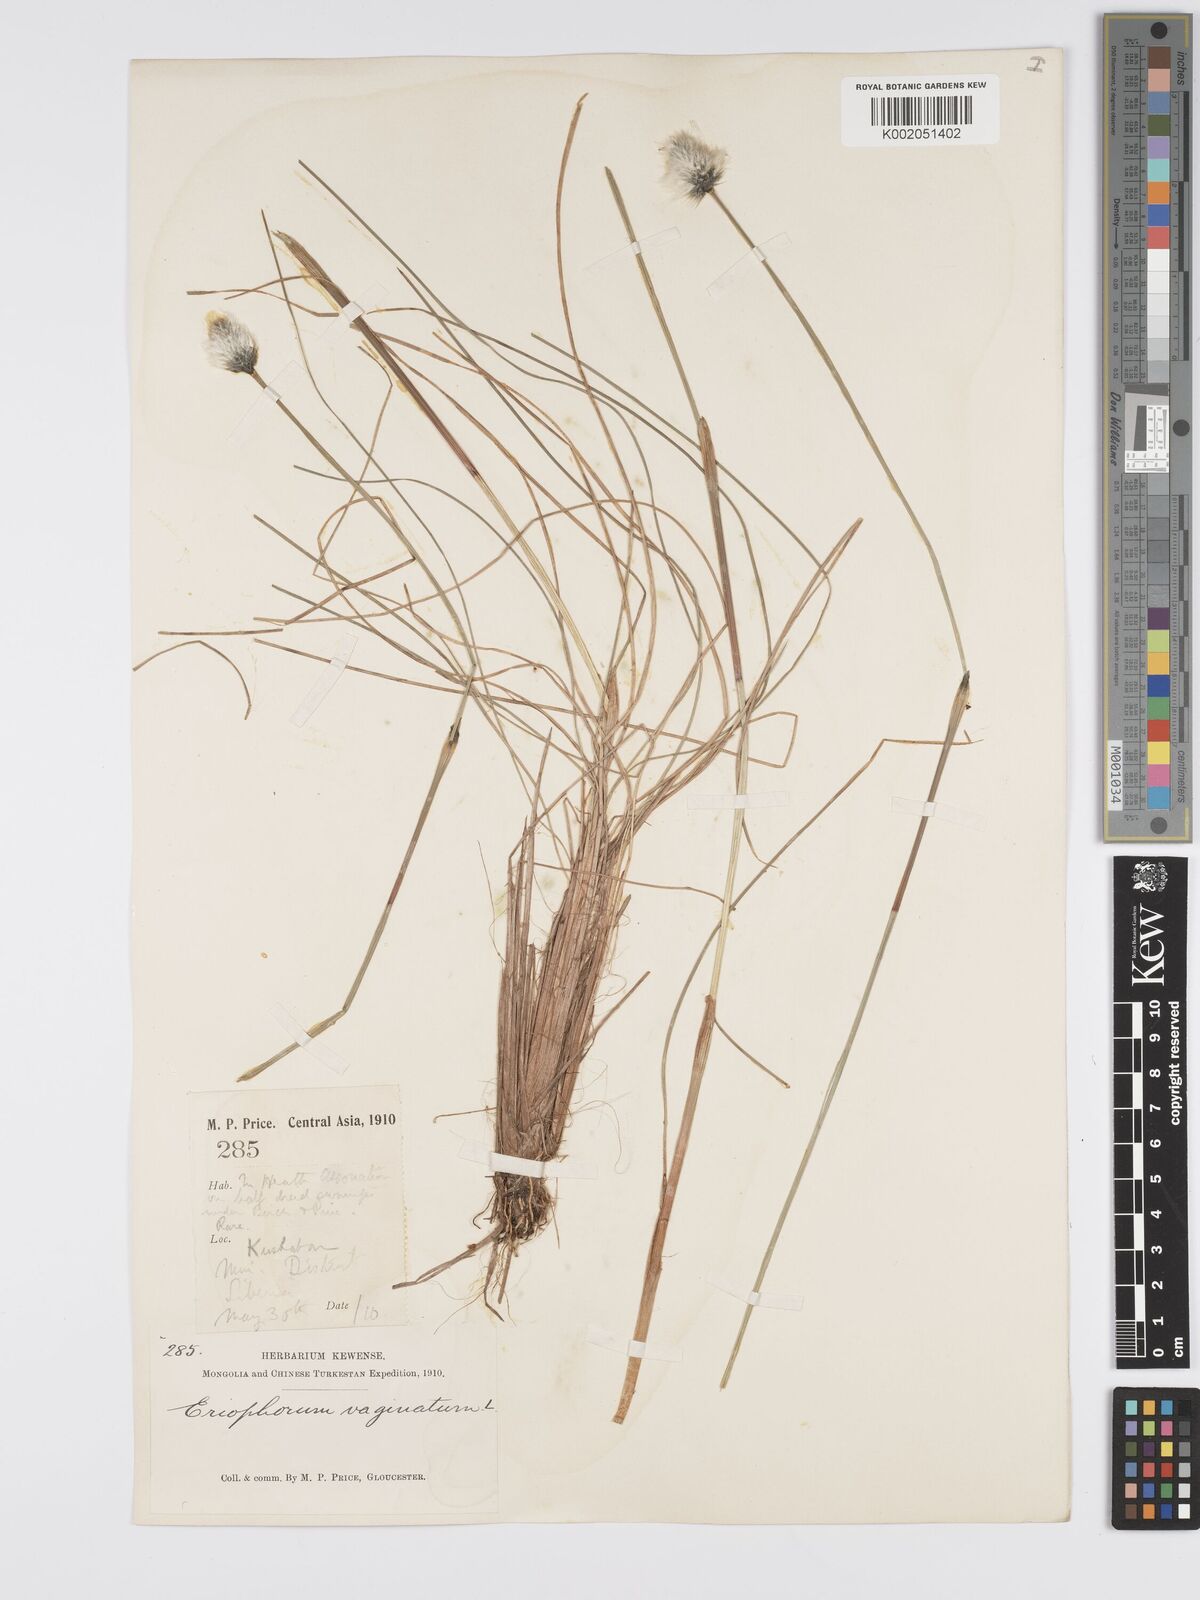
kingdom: Plantae
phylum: Tracheophyta
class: Liliopsida
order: Poales
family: Cyperaceae
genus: Eriophorum
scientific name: Eriophorum vaginatum
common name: Hare's-tail cottongrass
